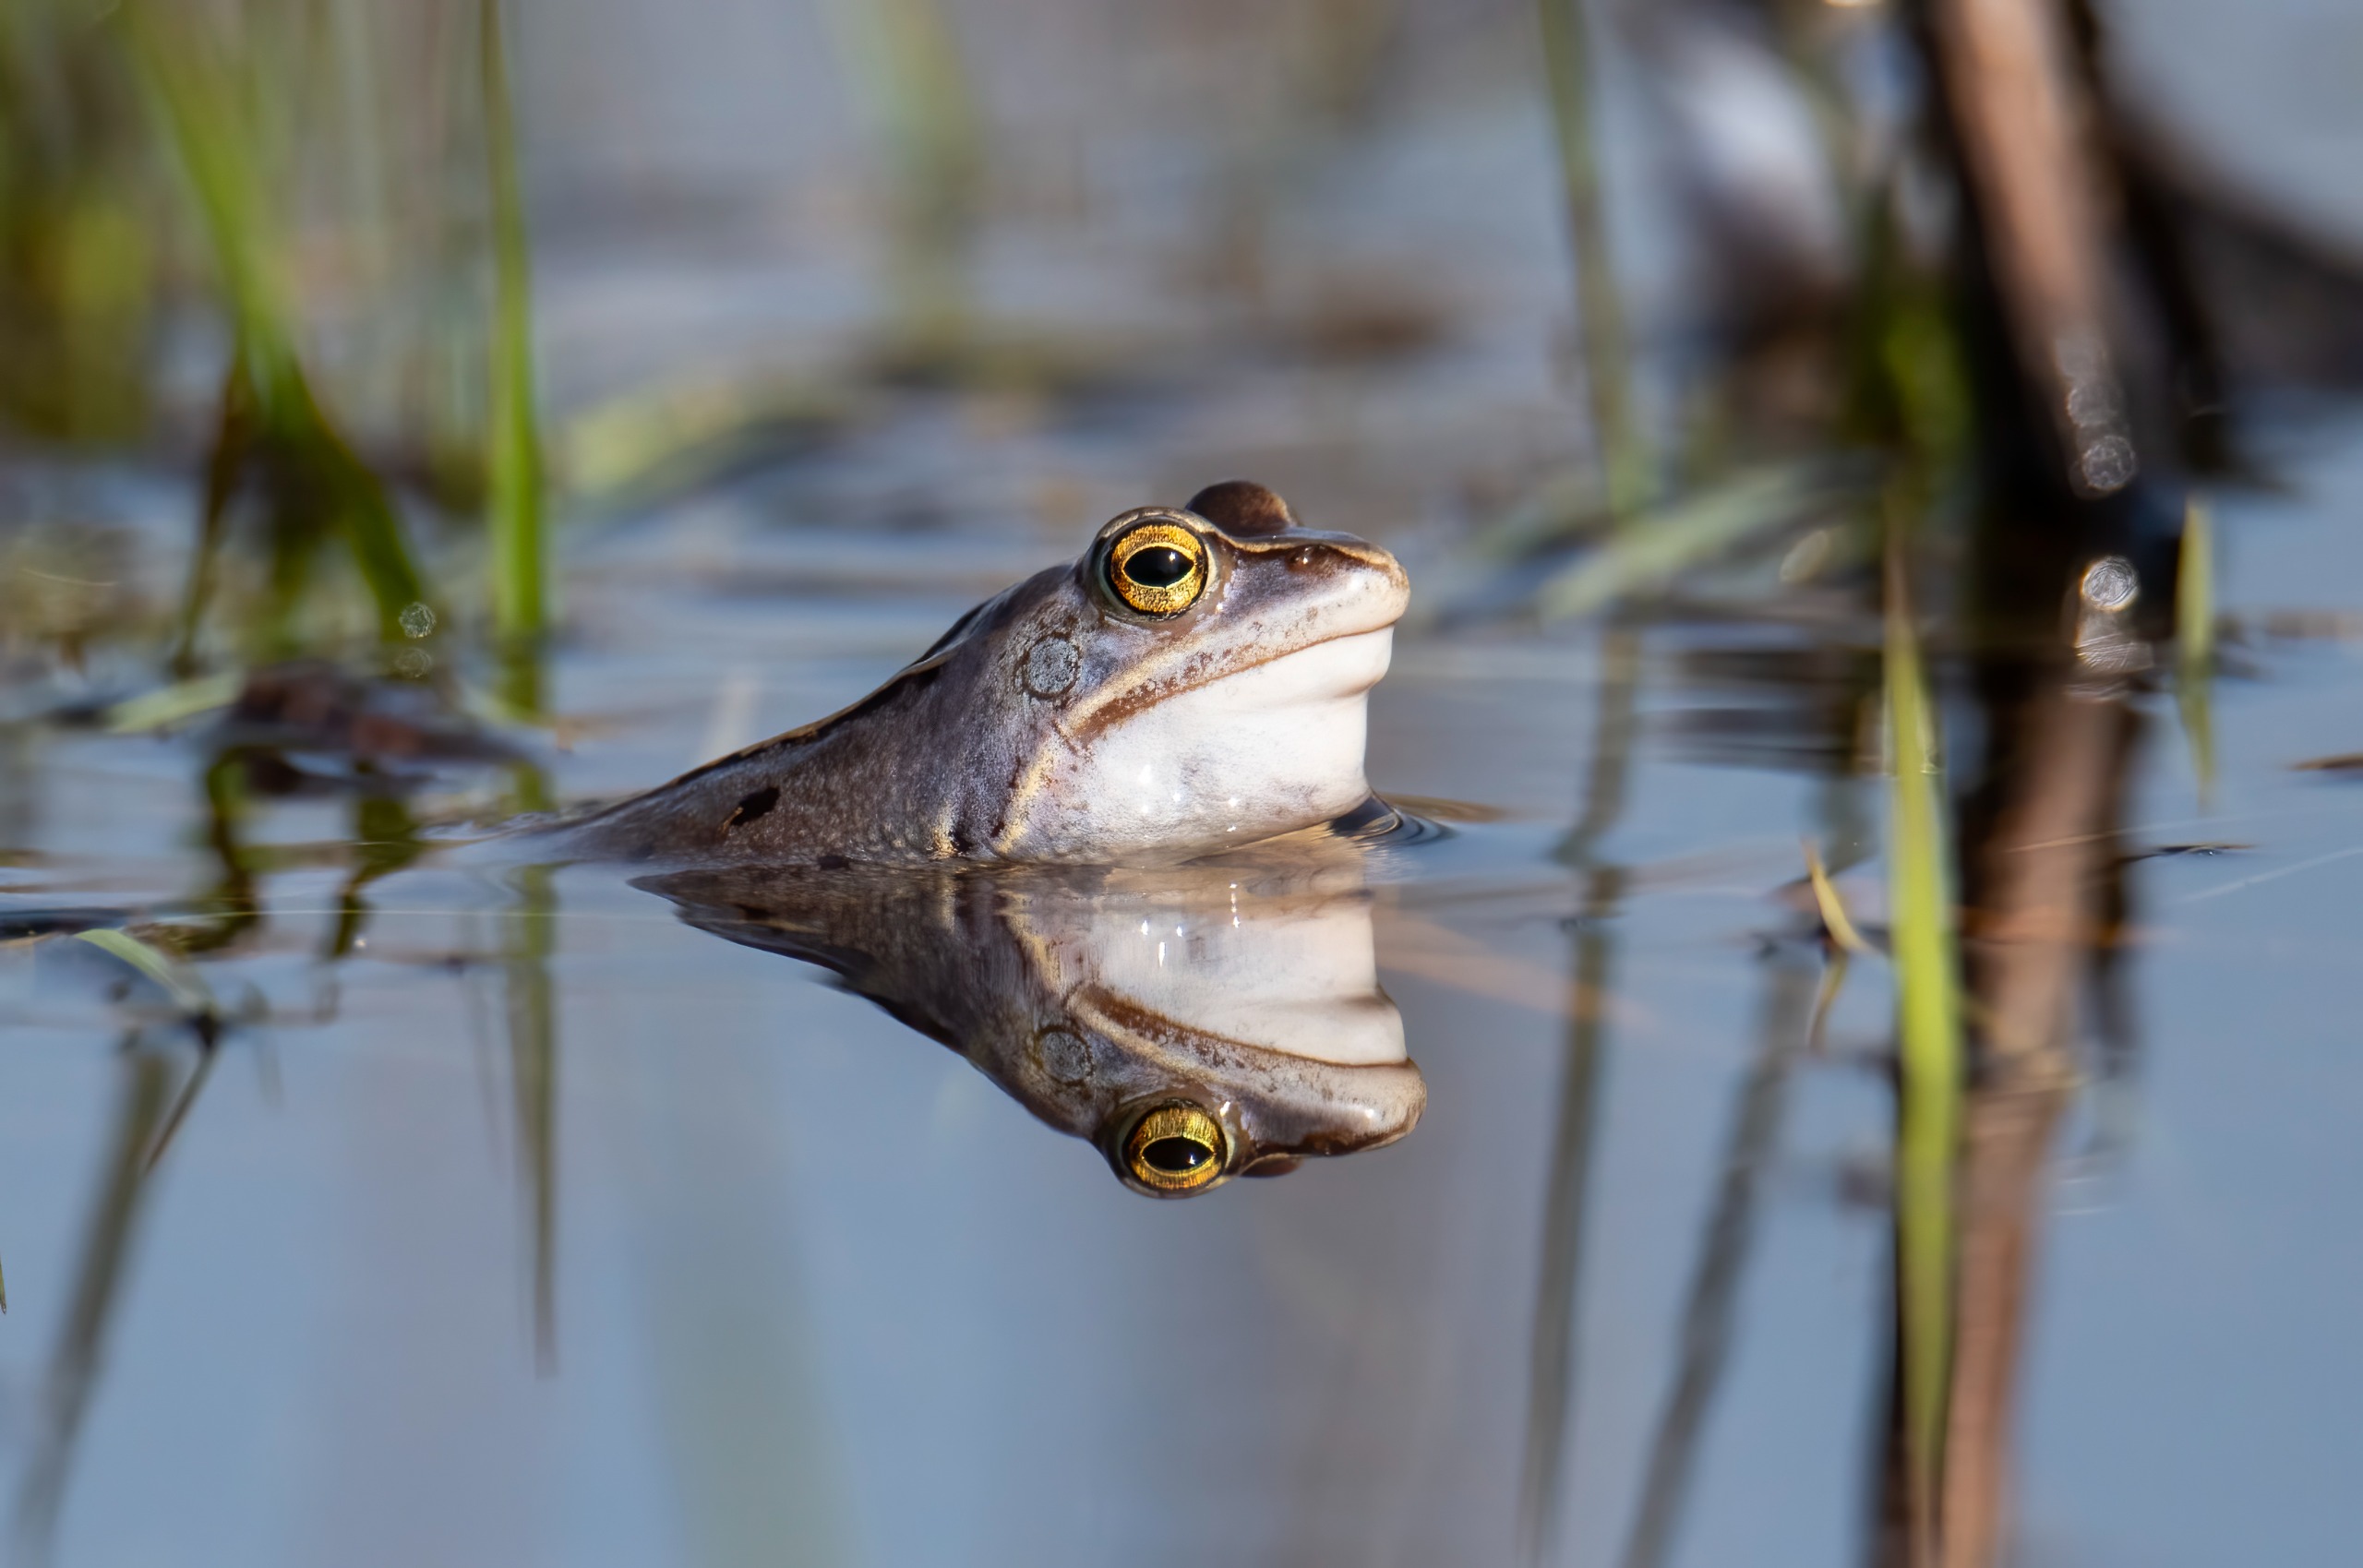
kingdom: Animalia
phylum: Chordata
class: Amphibia
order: Anura
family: Ranidae
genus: Rana
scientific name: Rana arvalis
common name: Spidssnudet frø
